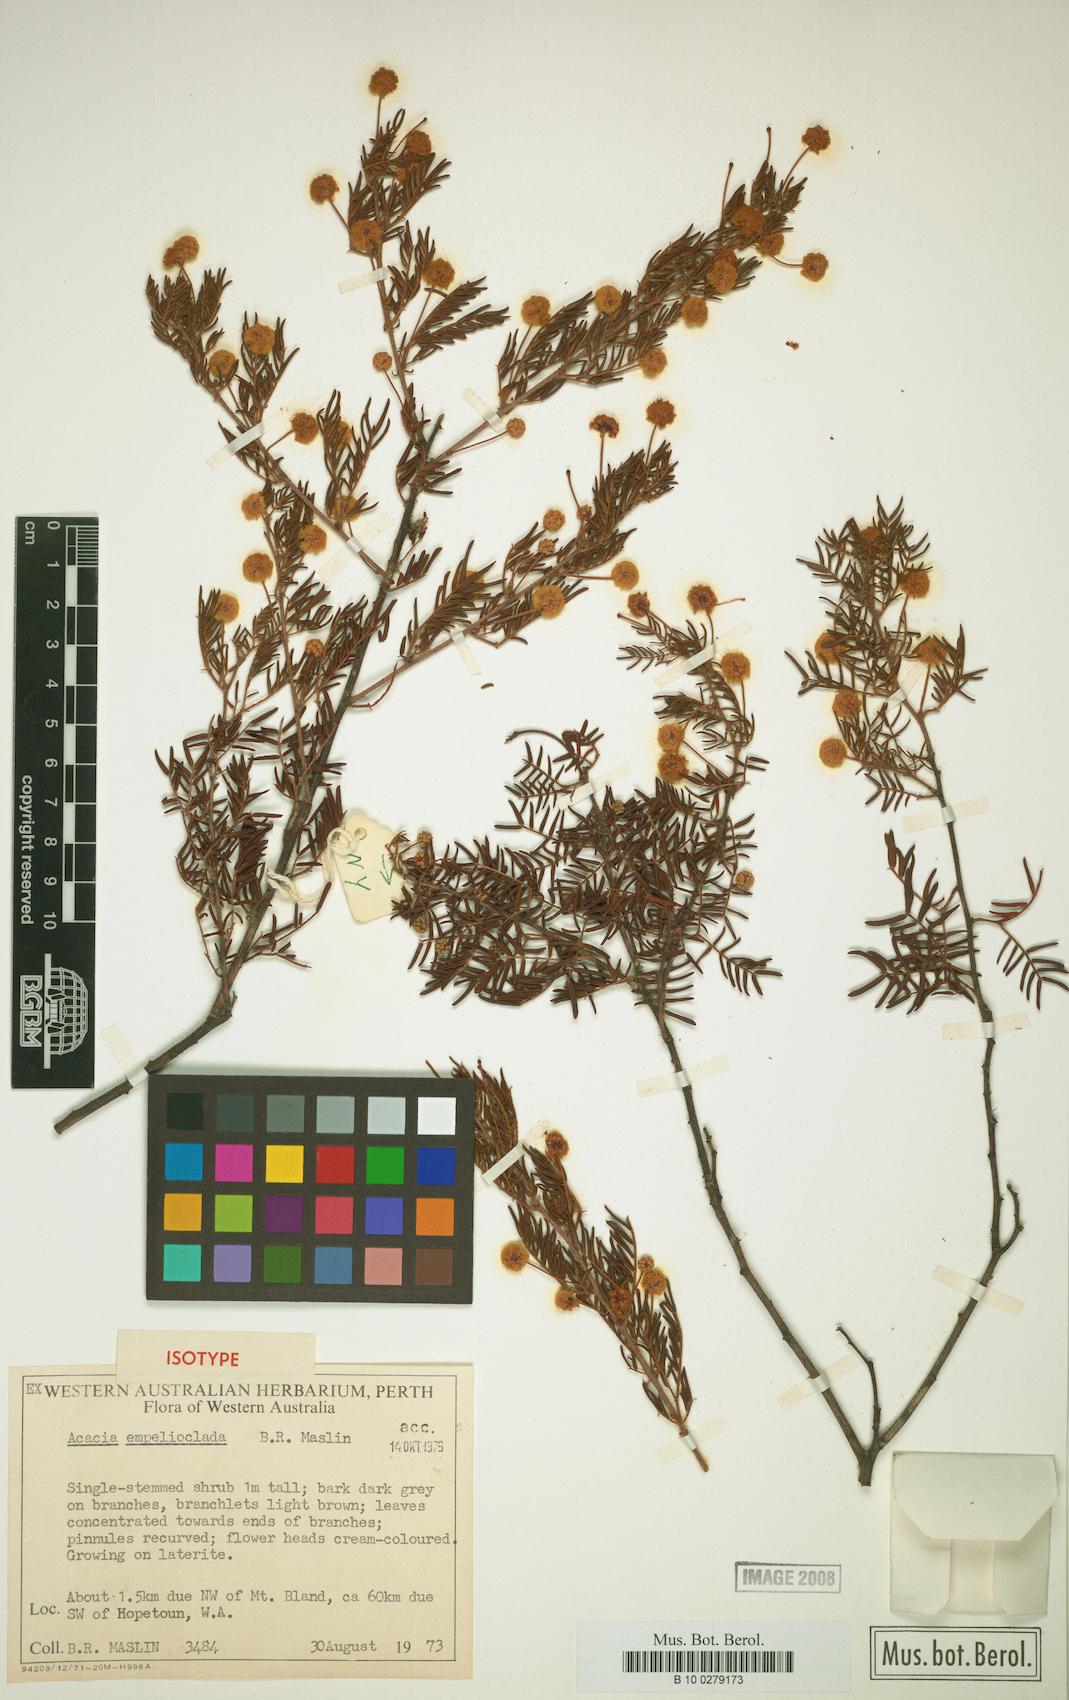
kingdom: Plantae
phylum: Tracheophyta
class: Magnoliopsida
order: Fabales
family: Fabaceae
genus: Acacia
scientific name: Acacia empelioclada
